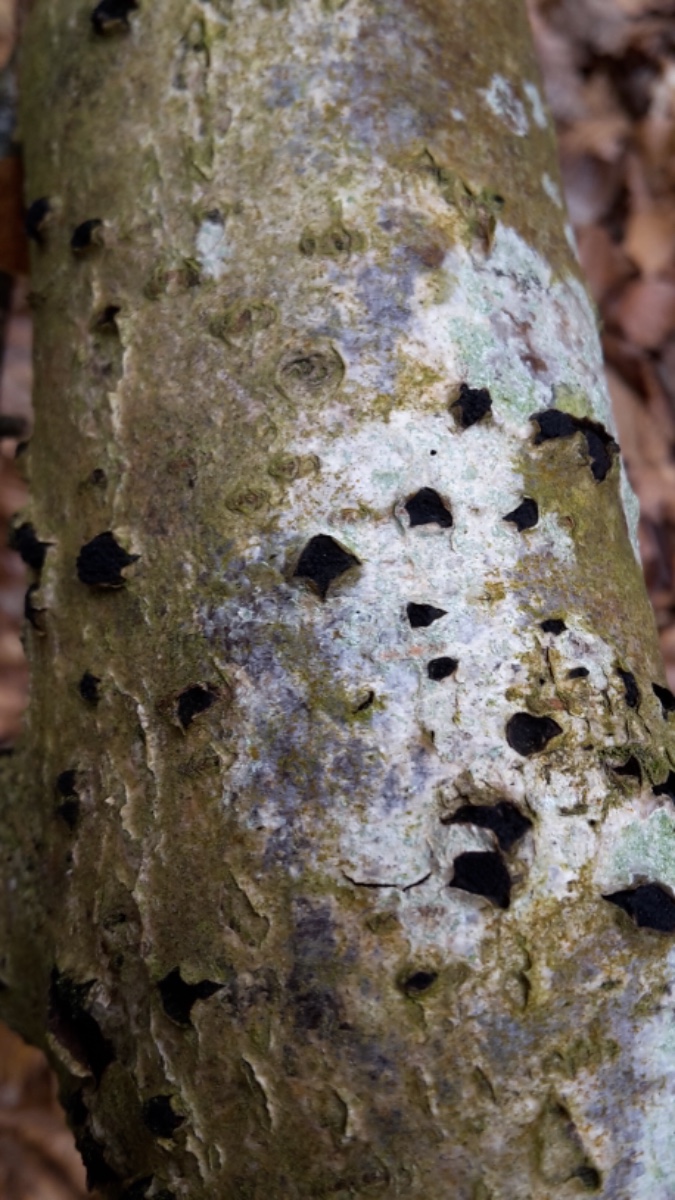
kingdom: Fungi
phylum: Ascomycota
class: Sordariomycetes
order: Xylariales
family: Diatrypaceae
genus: Eutypella
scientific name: Eutypella sorbi
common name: rønne-kulskorpe
